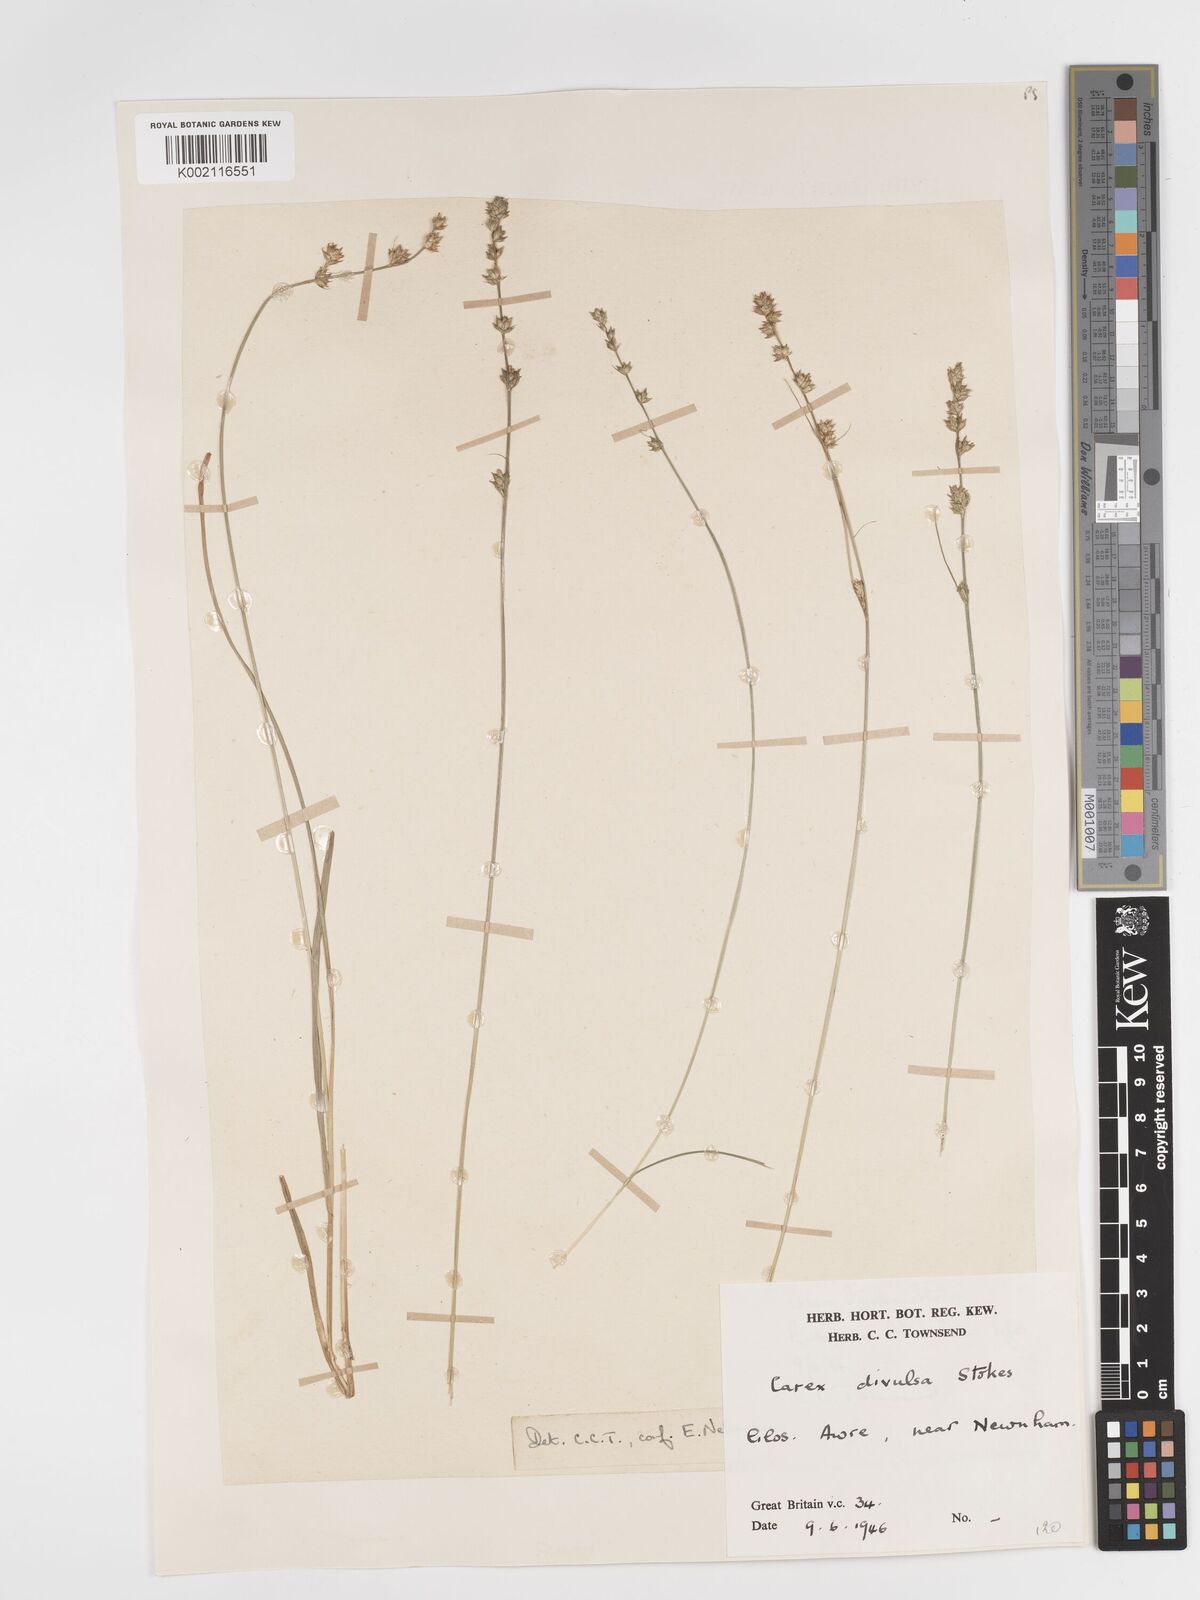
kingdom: Plantae
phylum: Tracheophyta
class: Liliopsida
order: Poales
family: Cyperaceae
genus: Carex
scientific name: Carex divulsa
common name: Grassland sedge
